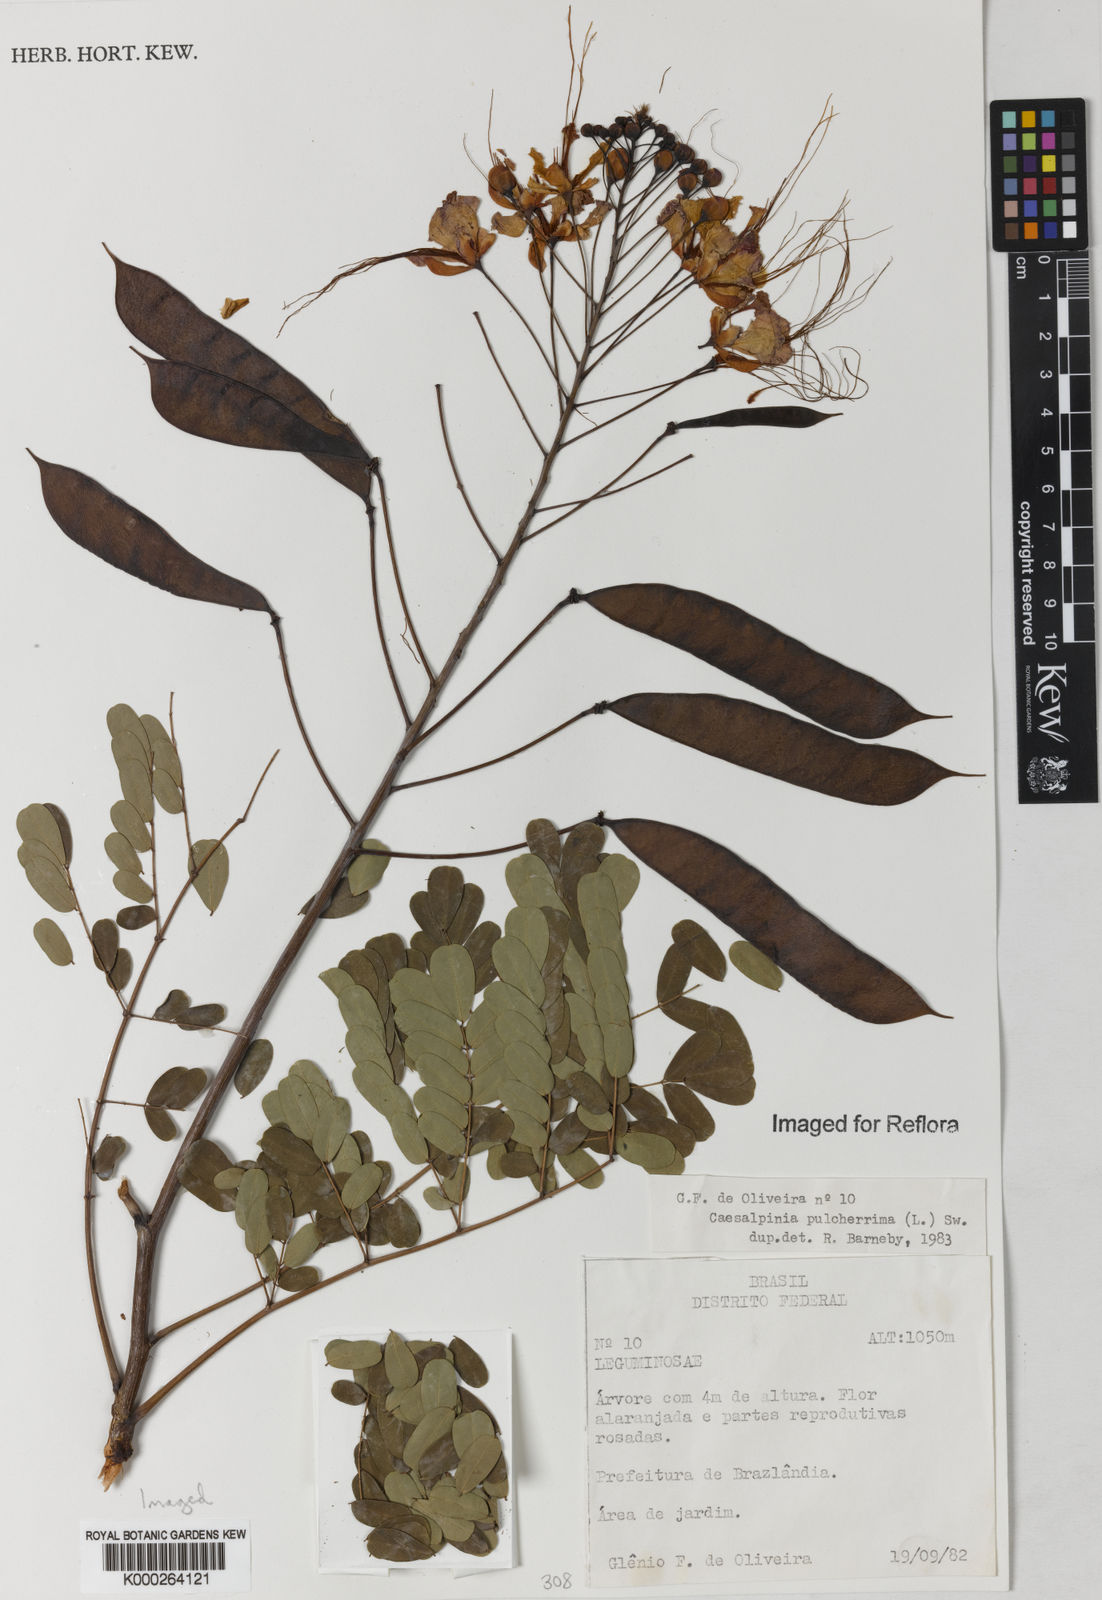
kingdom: Plantae
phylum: Tracheophyta
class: Magnoliopsida
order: Fabales
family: Fabaceae
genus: Caesalpinia
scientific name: Caesalpinia pulcherrima
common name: Pride-of-barbados
